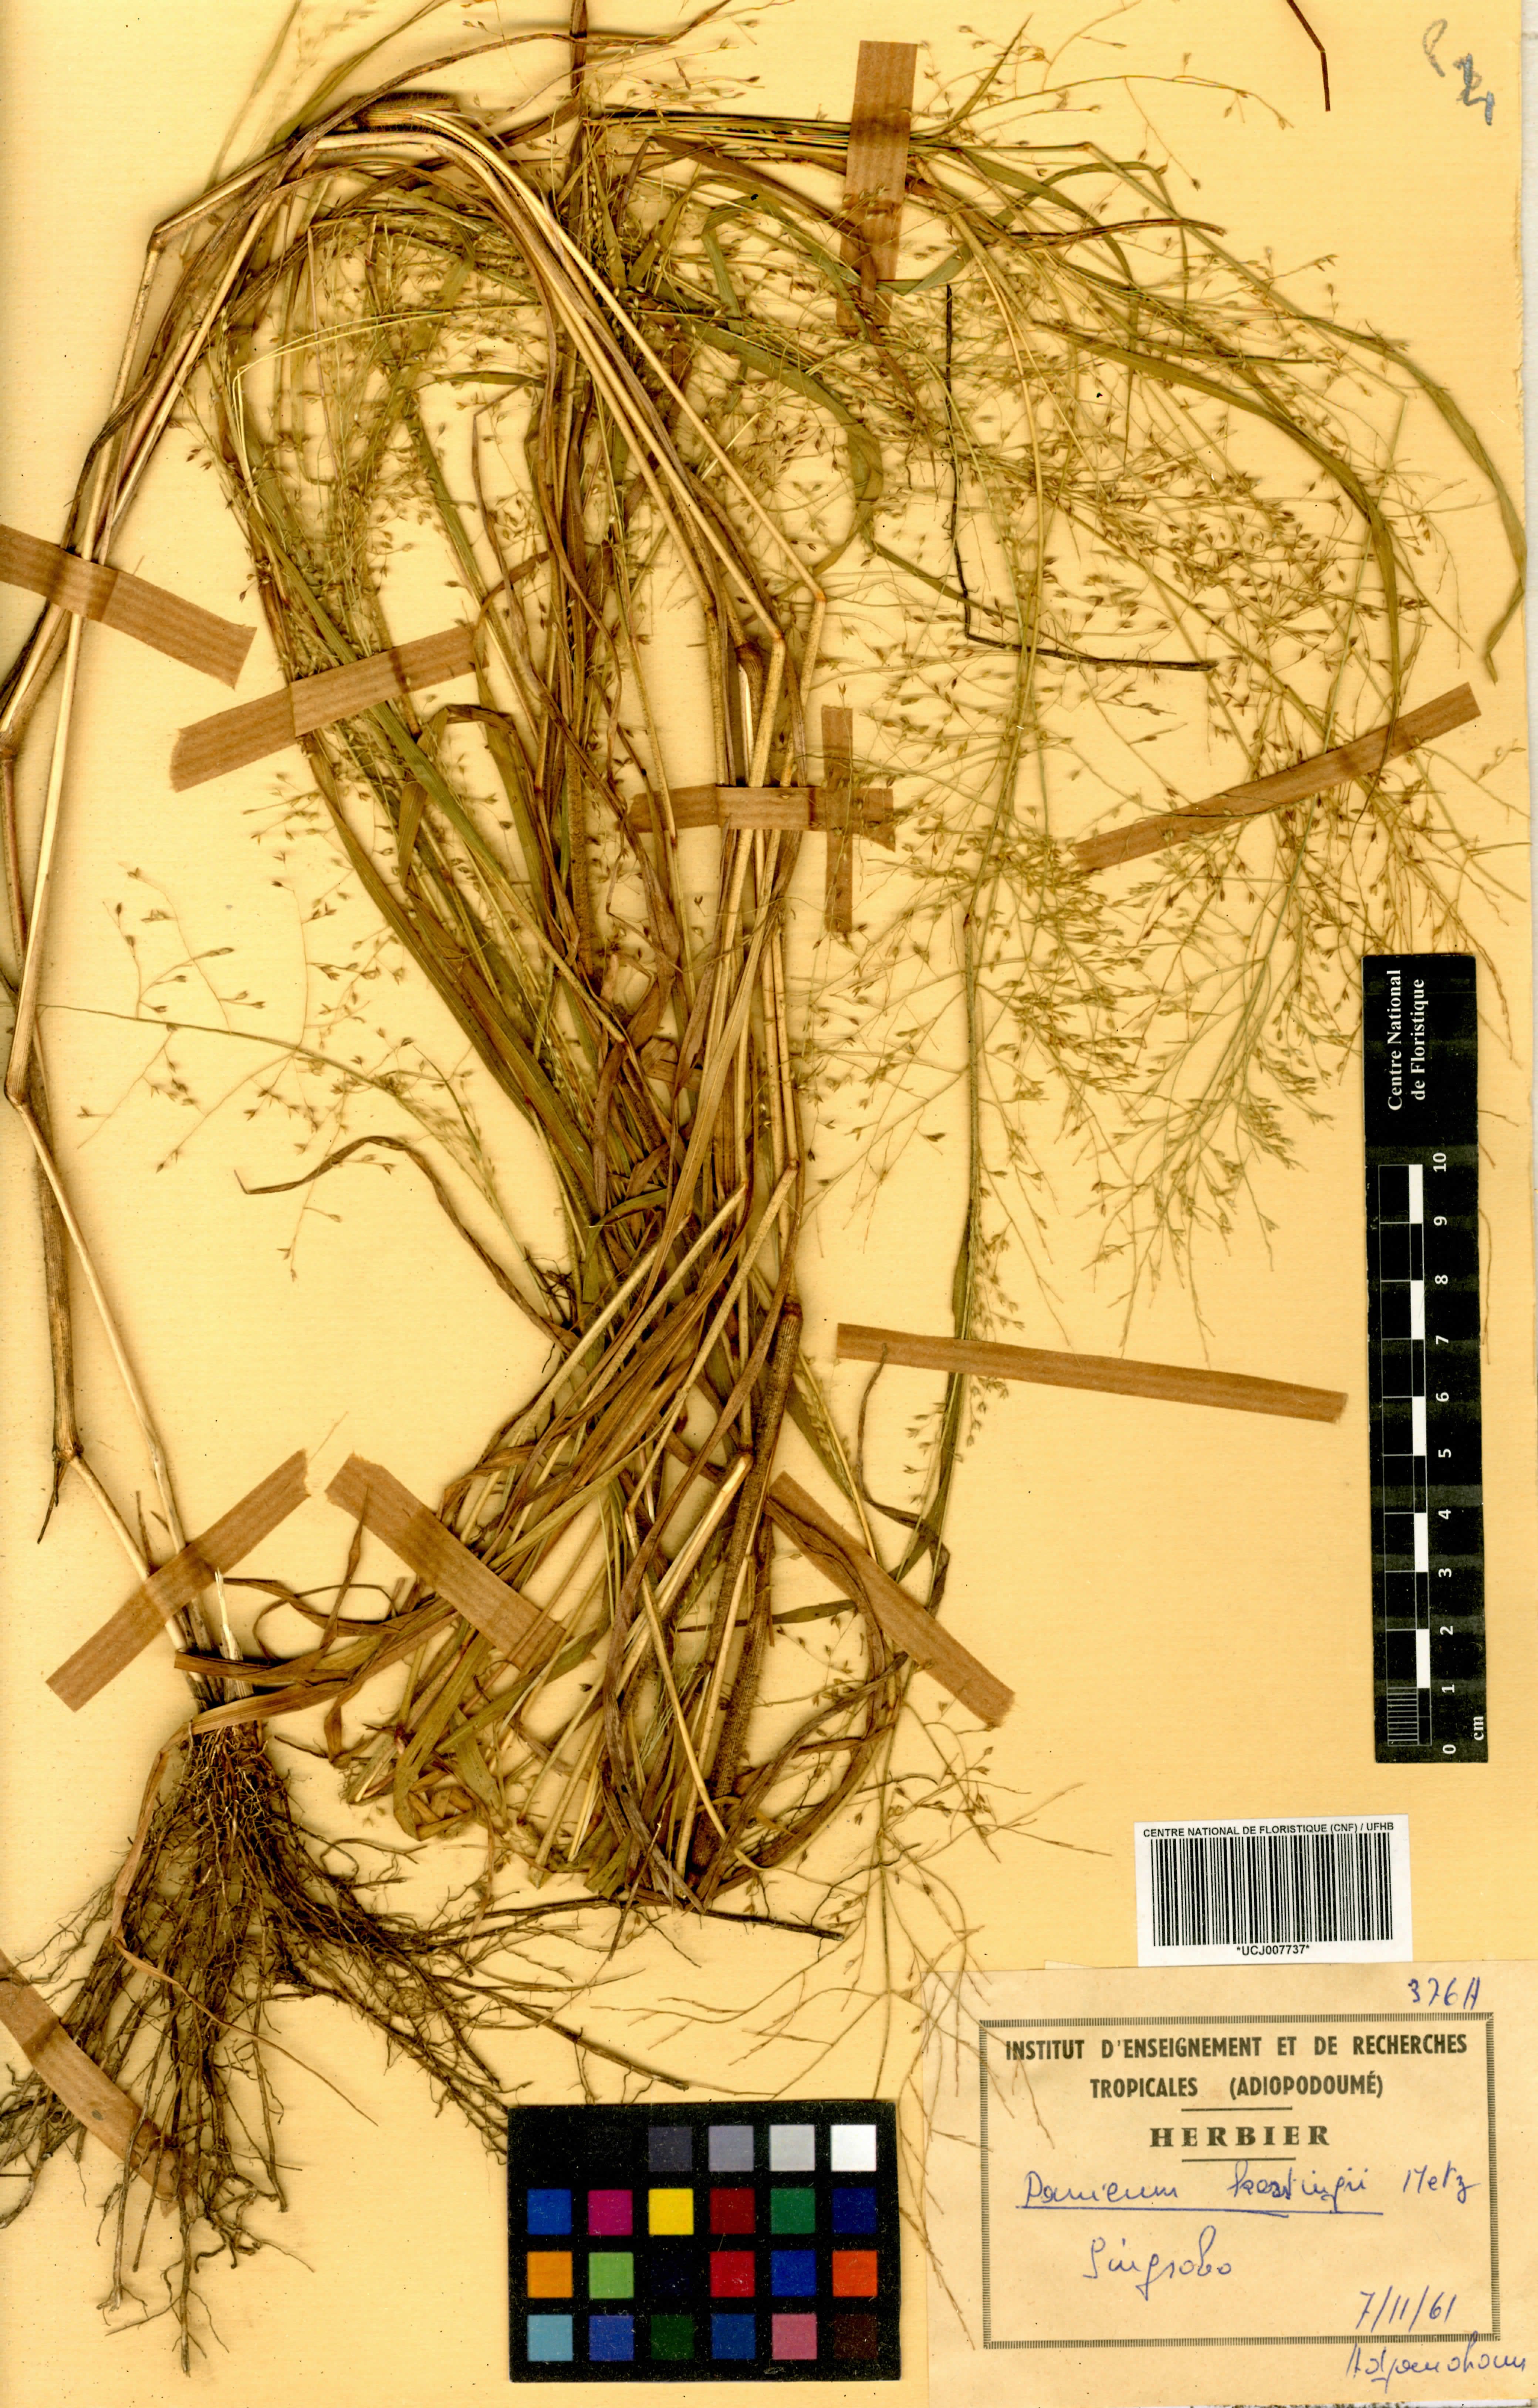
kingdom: Plantae
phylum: Tracheophyta
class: Liliopsida
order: Poales
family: Poaceae
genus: Panicum
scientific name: Panicum pansum
